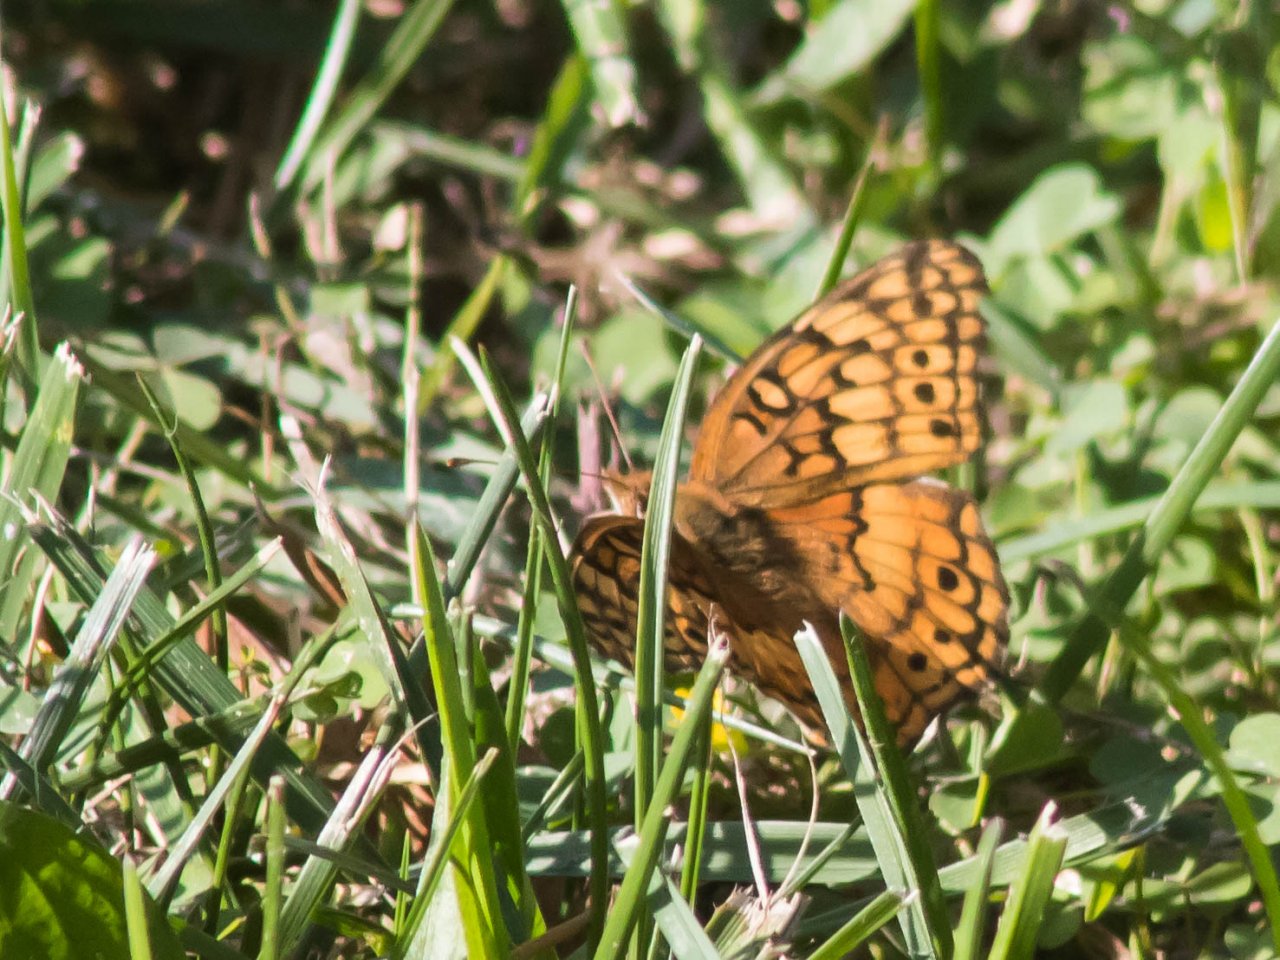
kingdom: Animalia
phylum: Arthropoda
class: Insecta
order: Lepidoptera
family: Nymphalidae
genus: Euptoieta
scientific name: Euptoieta claudia
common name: Variegated Fritillary
